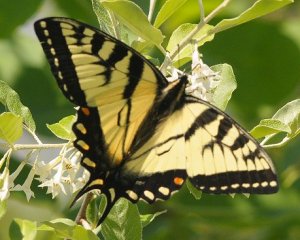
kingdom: Animalia
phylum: Arthropoda
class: Insecta
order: Lepidoptera
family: Papilionidae
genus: Pterourus
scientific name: Pterourus canadensis
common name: Canadian Tiger Swallowtail
